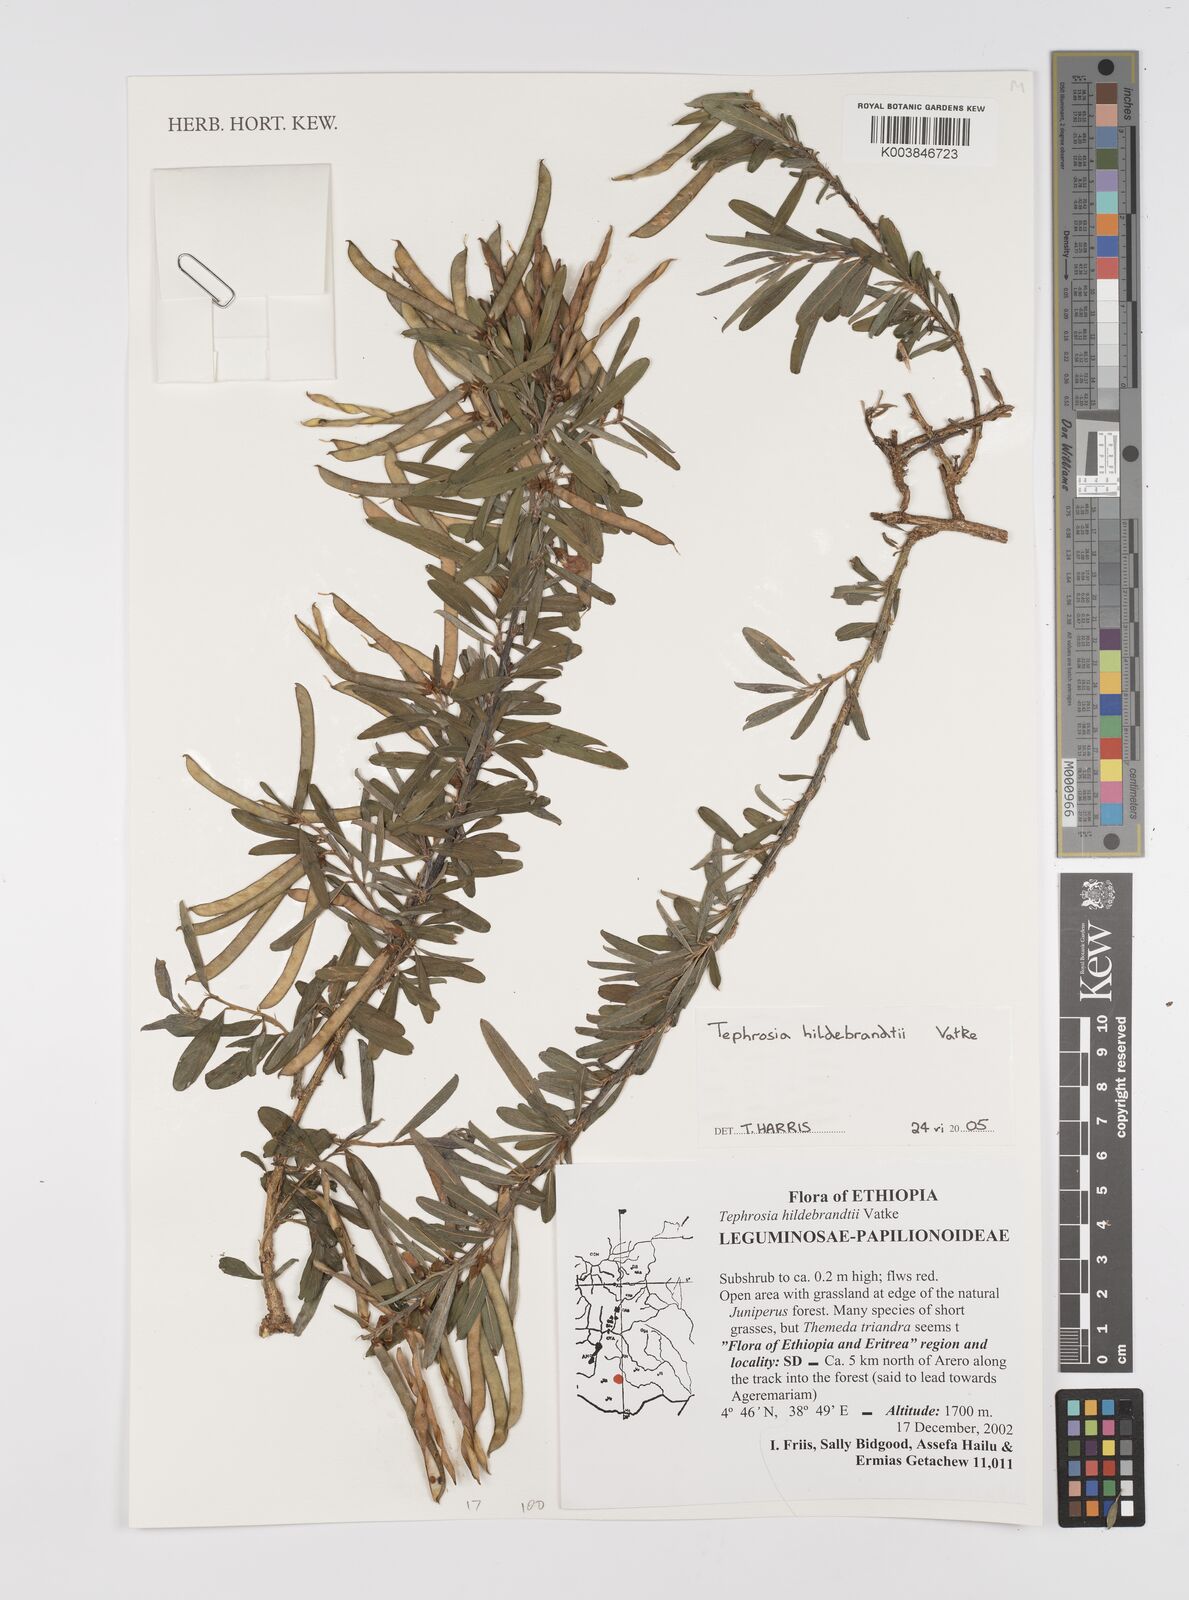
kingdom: Plantae
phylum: Tracheophyta
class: Magnoliopsida
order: Fabales
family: Fabaceae
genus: Tephrosia
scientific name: Tephrosia hildebrandtii
